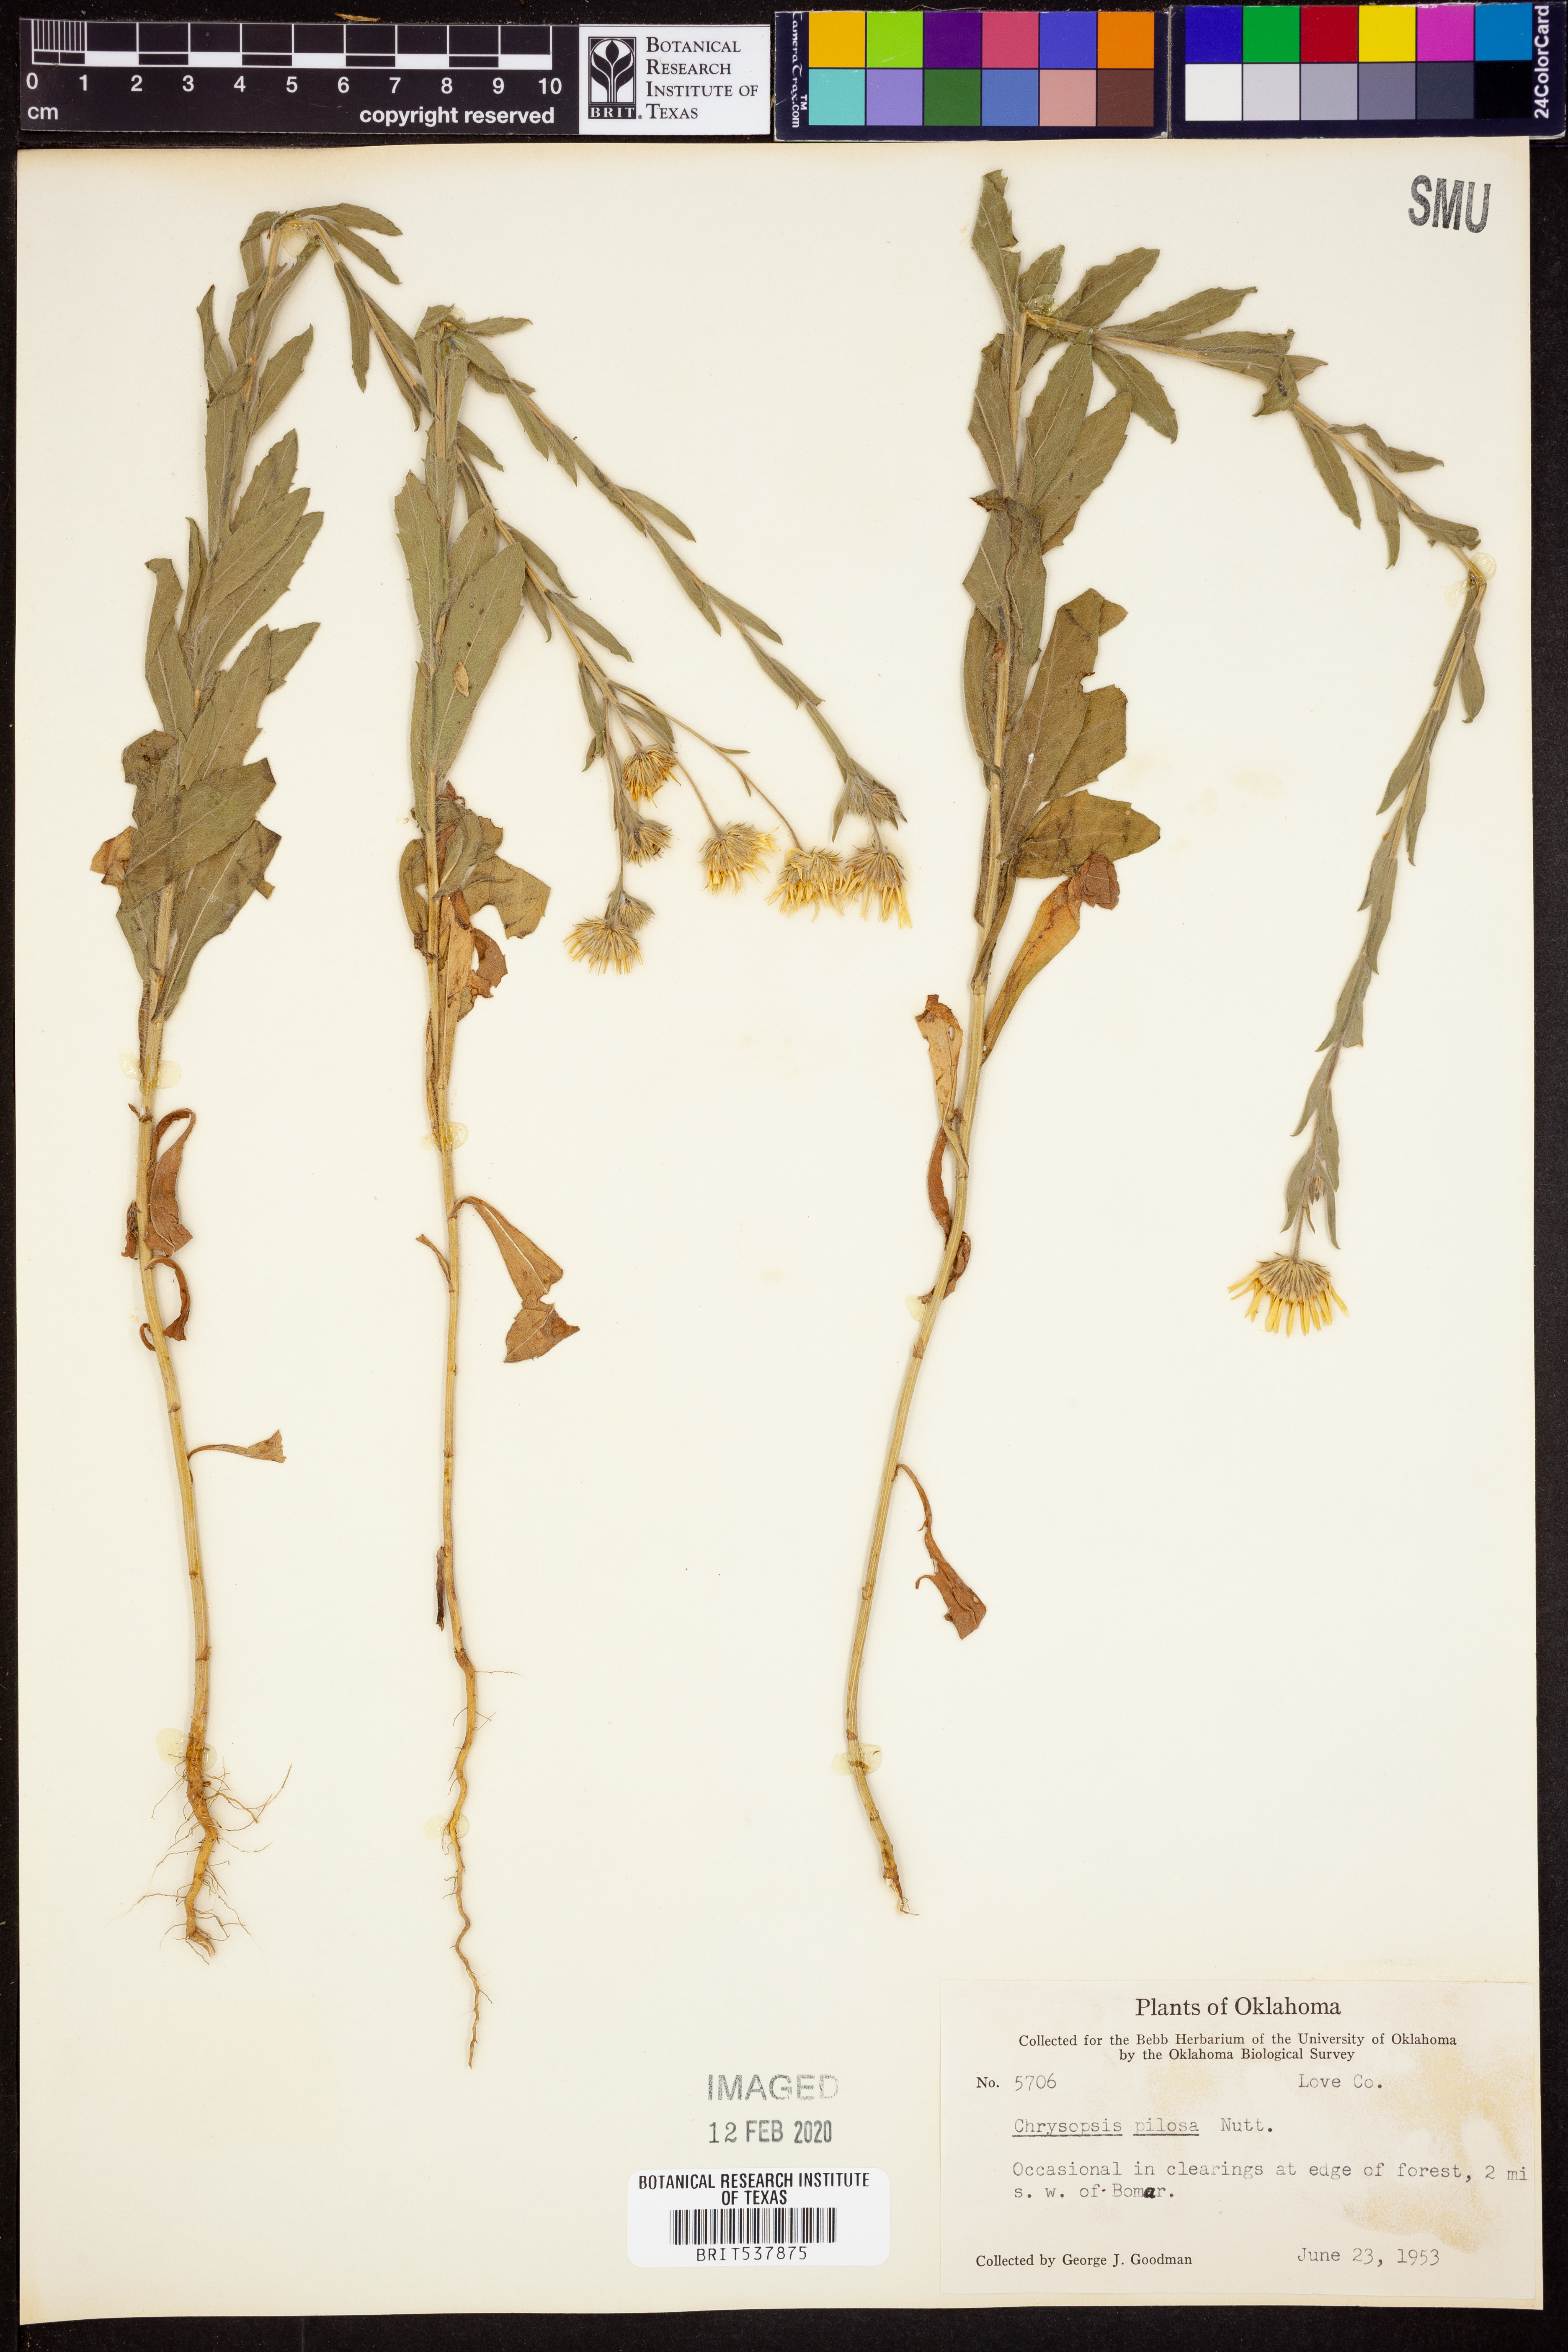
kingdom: Plantae
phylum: Tracheophyta
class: Magnoliopsida
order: Asterales
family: Asteraceae
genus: Bradburia
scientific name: Bradburia pilosa
